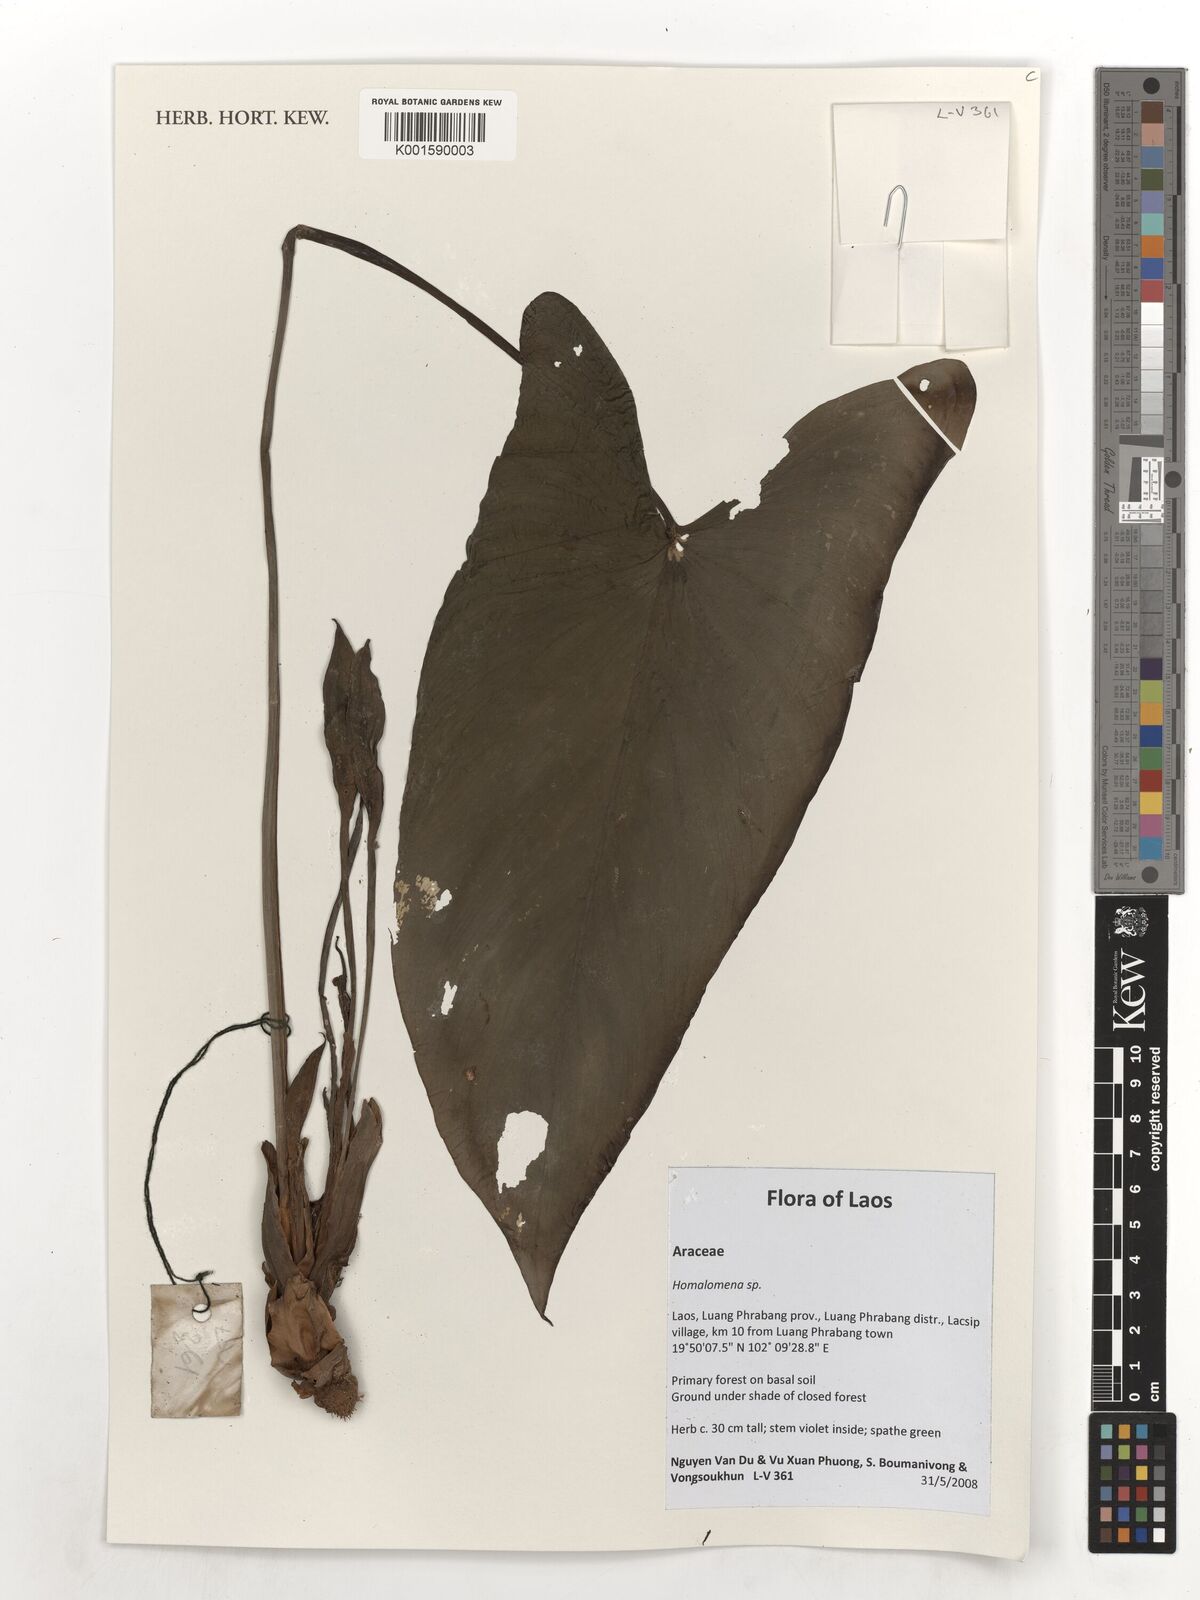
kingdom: Plantae
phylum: Tracheophyta
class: Liliopsida
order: Alismatales
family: Araceae
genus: Homalomena
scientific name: Homalomena
